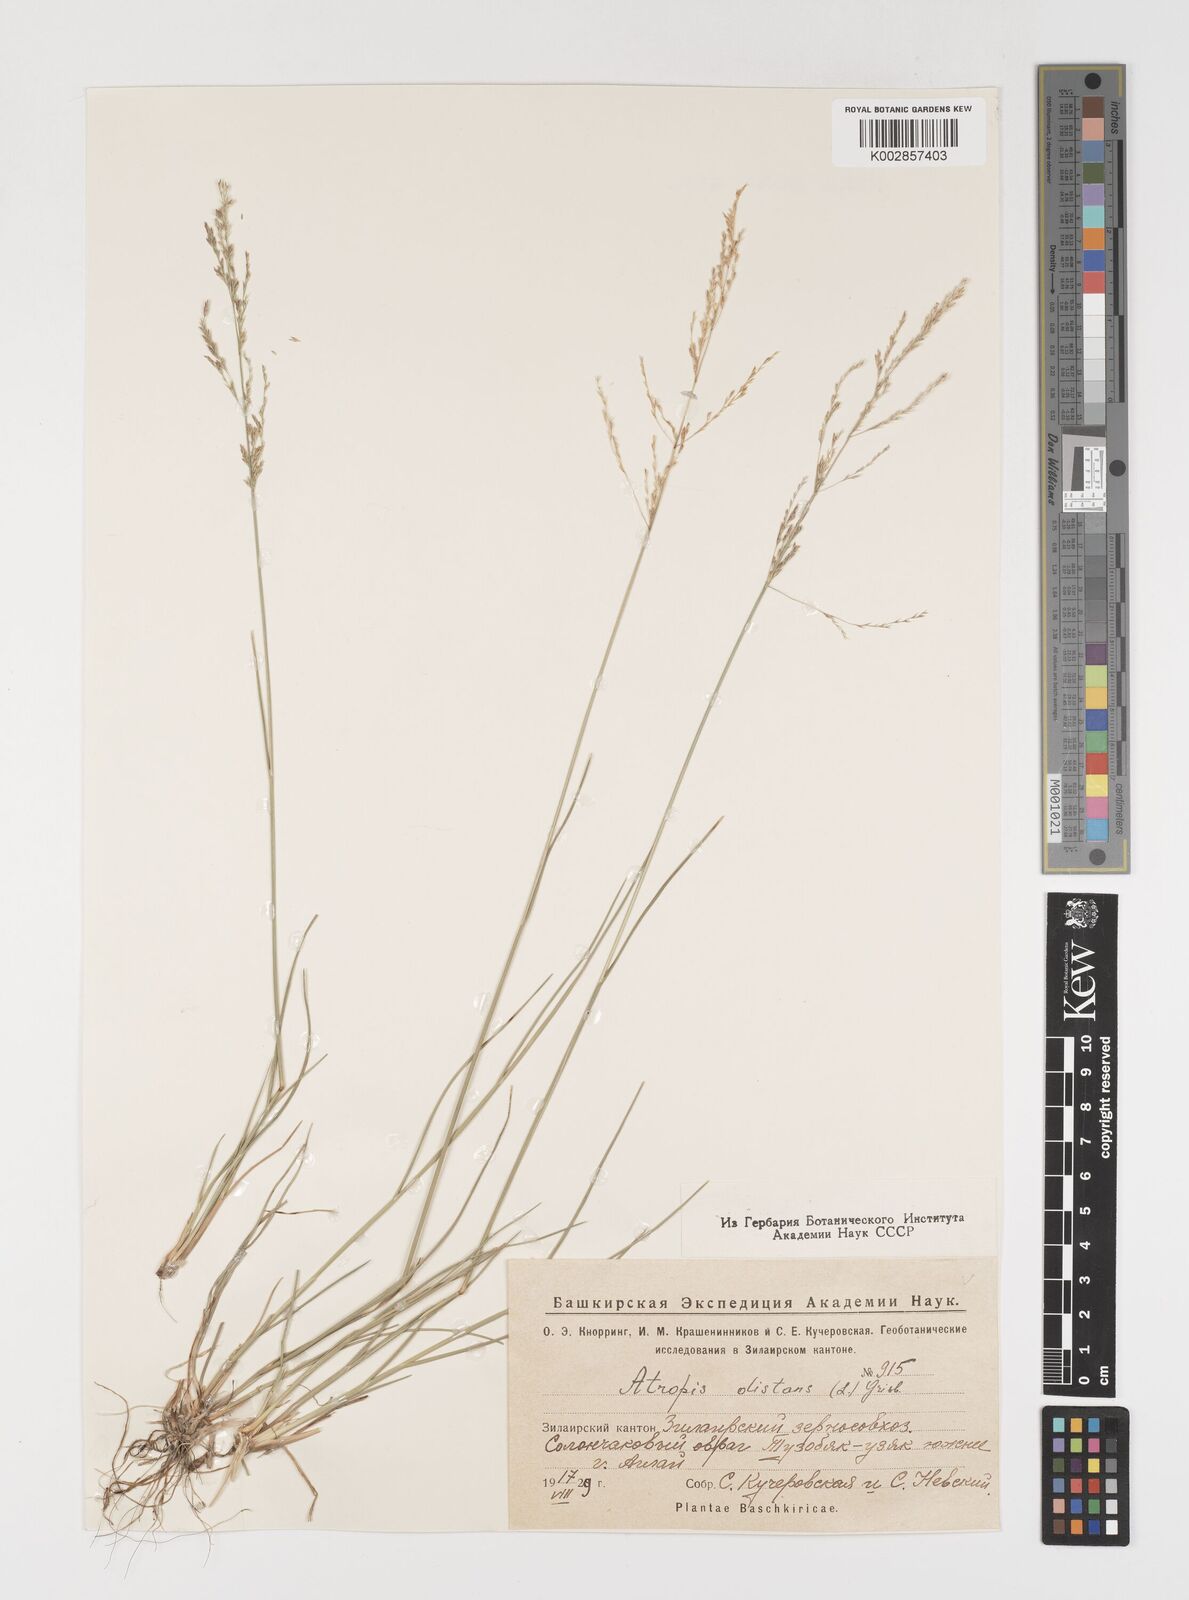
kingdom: Plantae
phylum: Tracheophyta
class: Liliopsida
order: Poales
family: Poaceae
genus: Puccinellia
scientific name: Puccinellia distans
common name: Weeping alkaligrass
